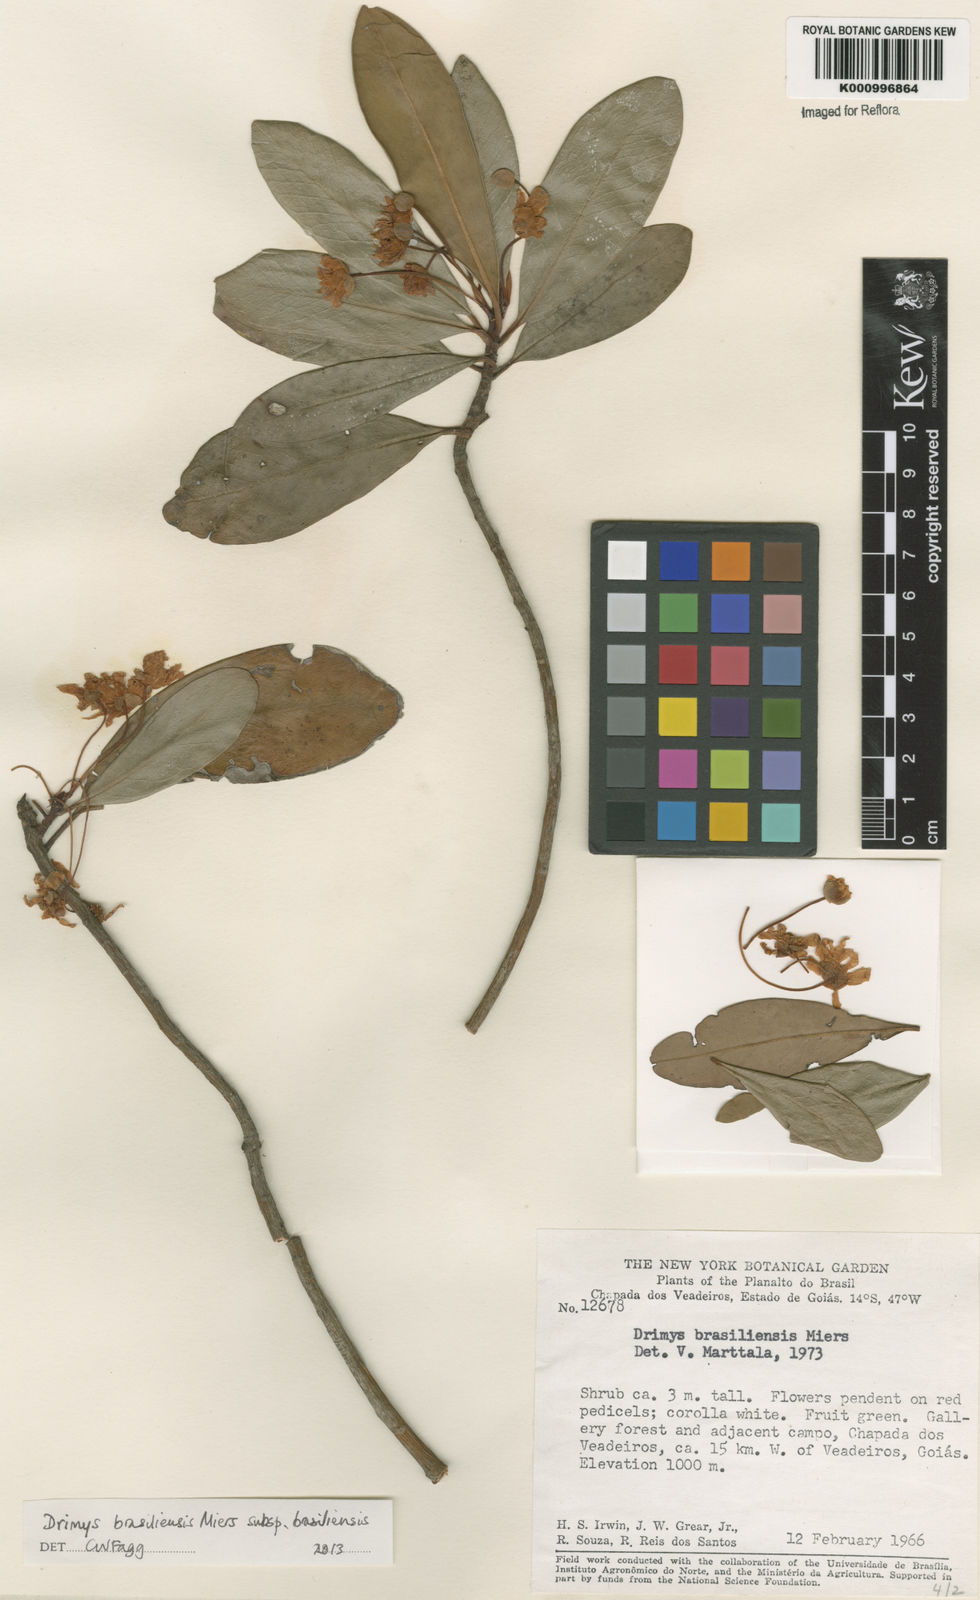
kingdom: Plantae
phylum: Tracheophyta
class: Magnoliopsida
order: Canellales
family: Winteraceae
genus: Drimys
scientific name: Drimys brasiliensis
